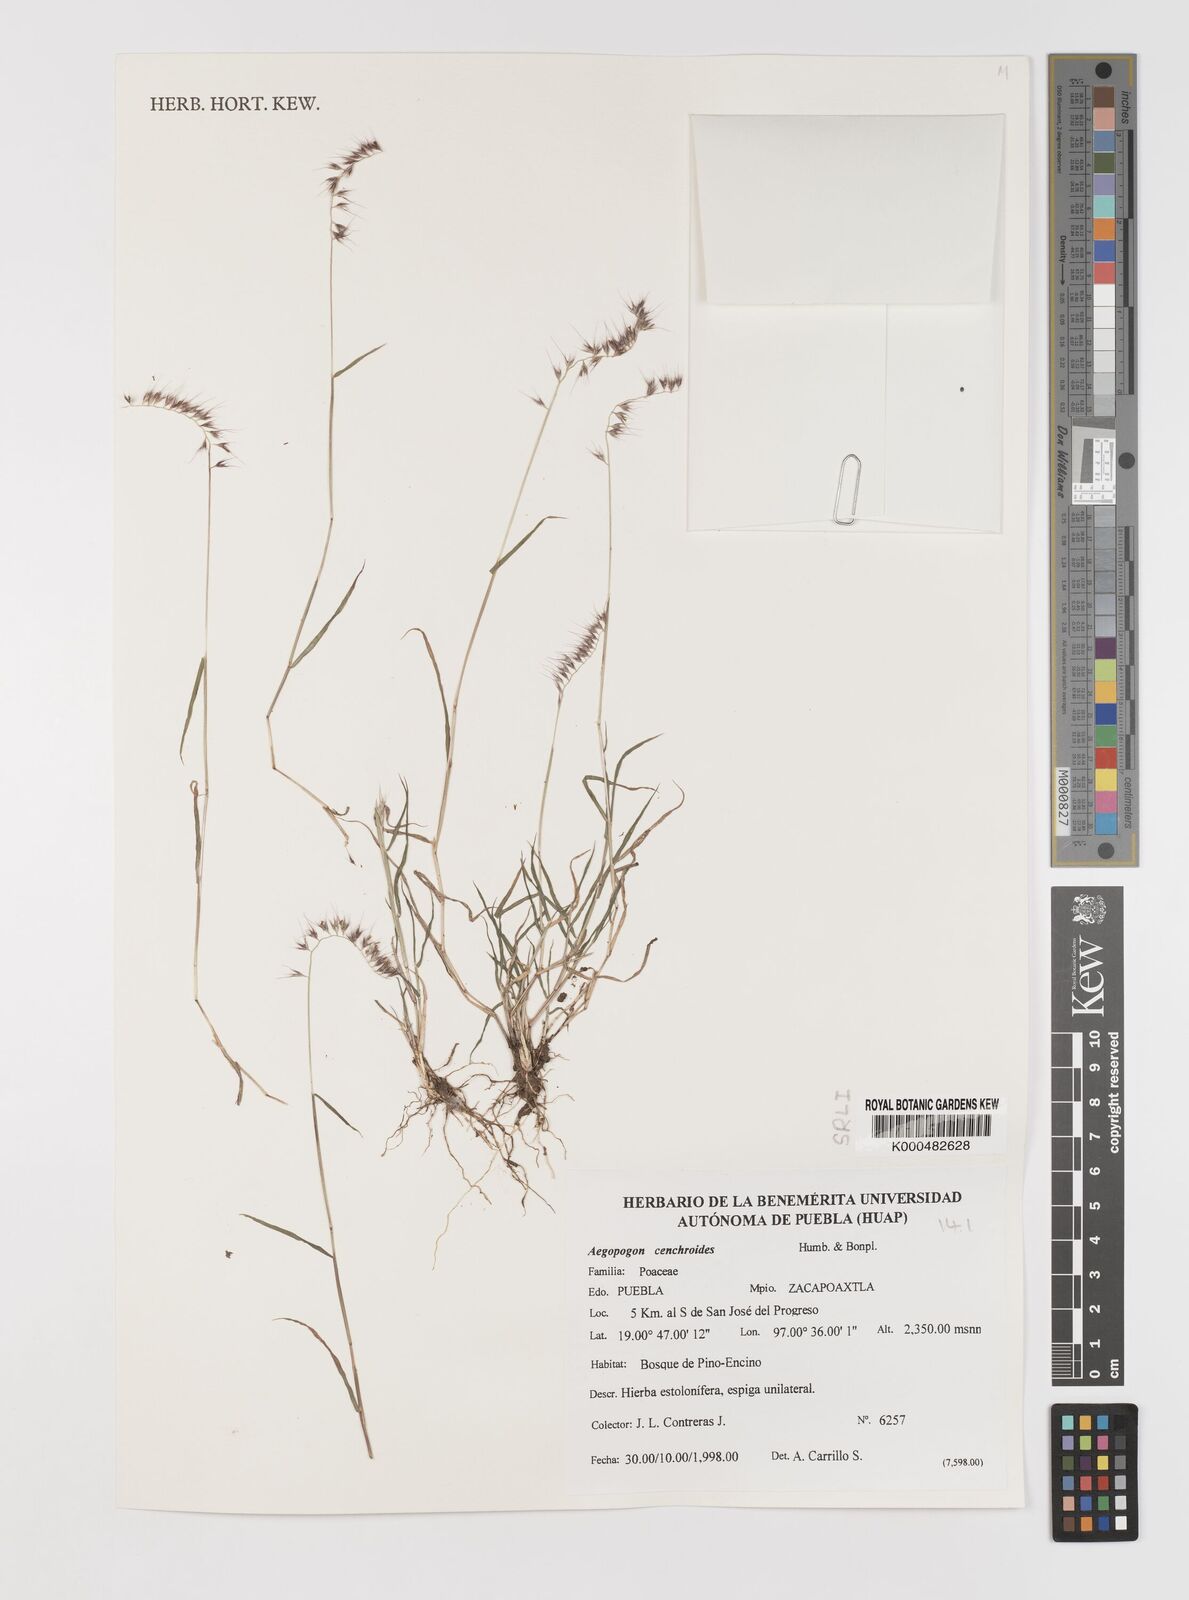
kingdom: Plantae
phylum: Tracheophyta
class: Liliopsida
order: Poales
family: Poaceae
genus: Muhlenbergia
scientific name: Muhlenbergia
